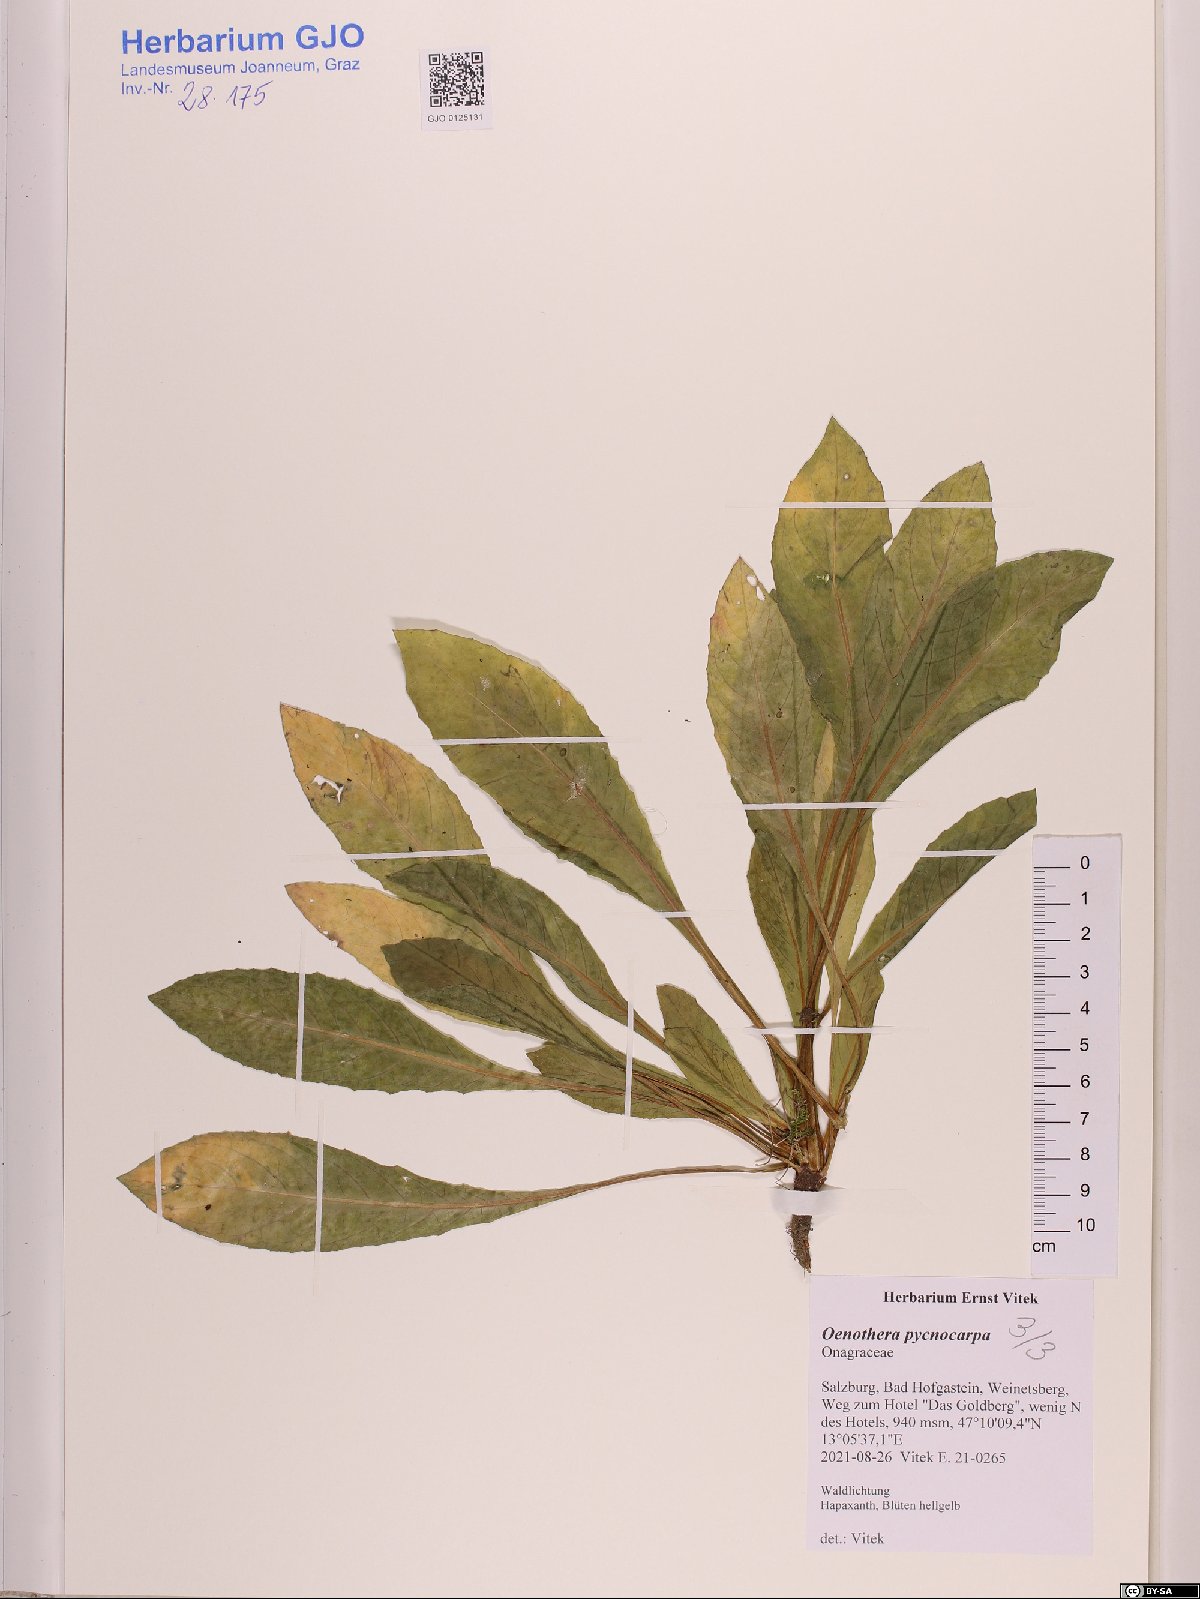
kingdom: Plantae
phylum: Tracheophyta
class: Magnoliopsida
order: Myrtales
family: Onagraceae
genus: Oenothera
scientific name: Oenothera biennis
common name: Common evening-primrose
